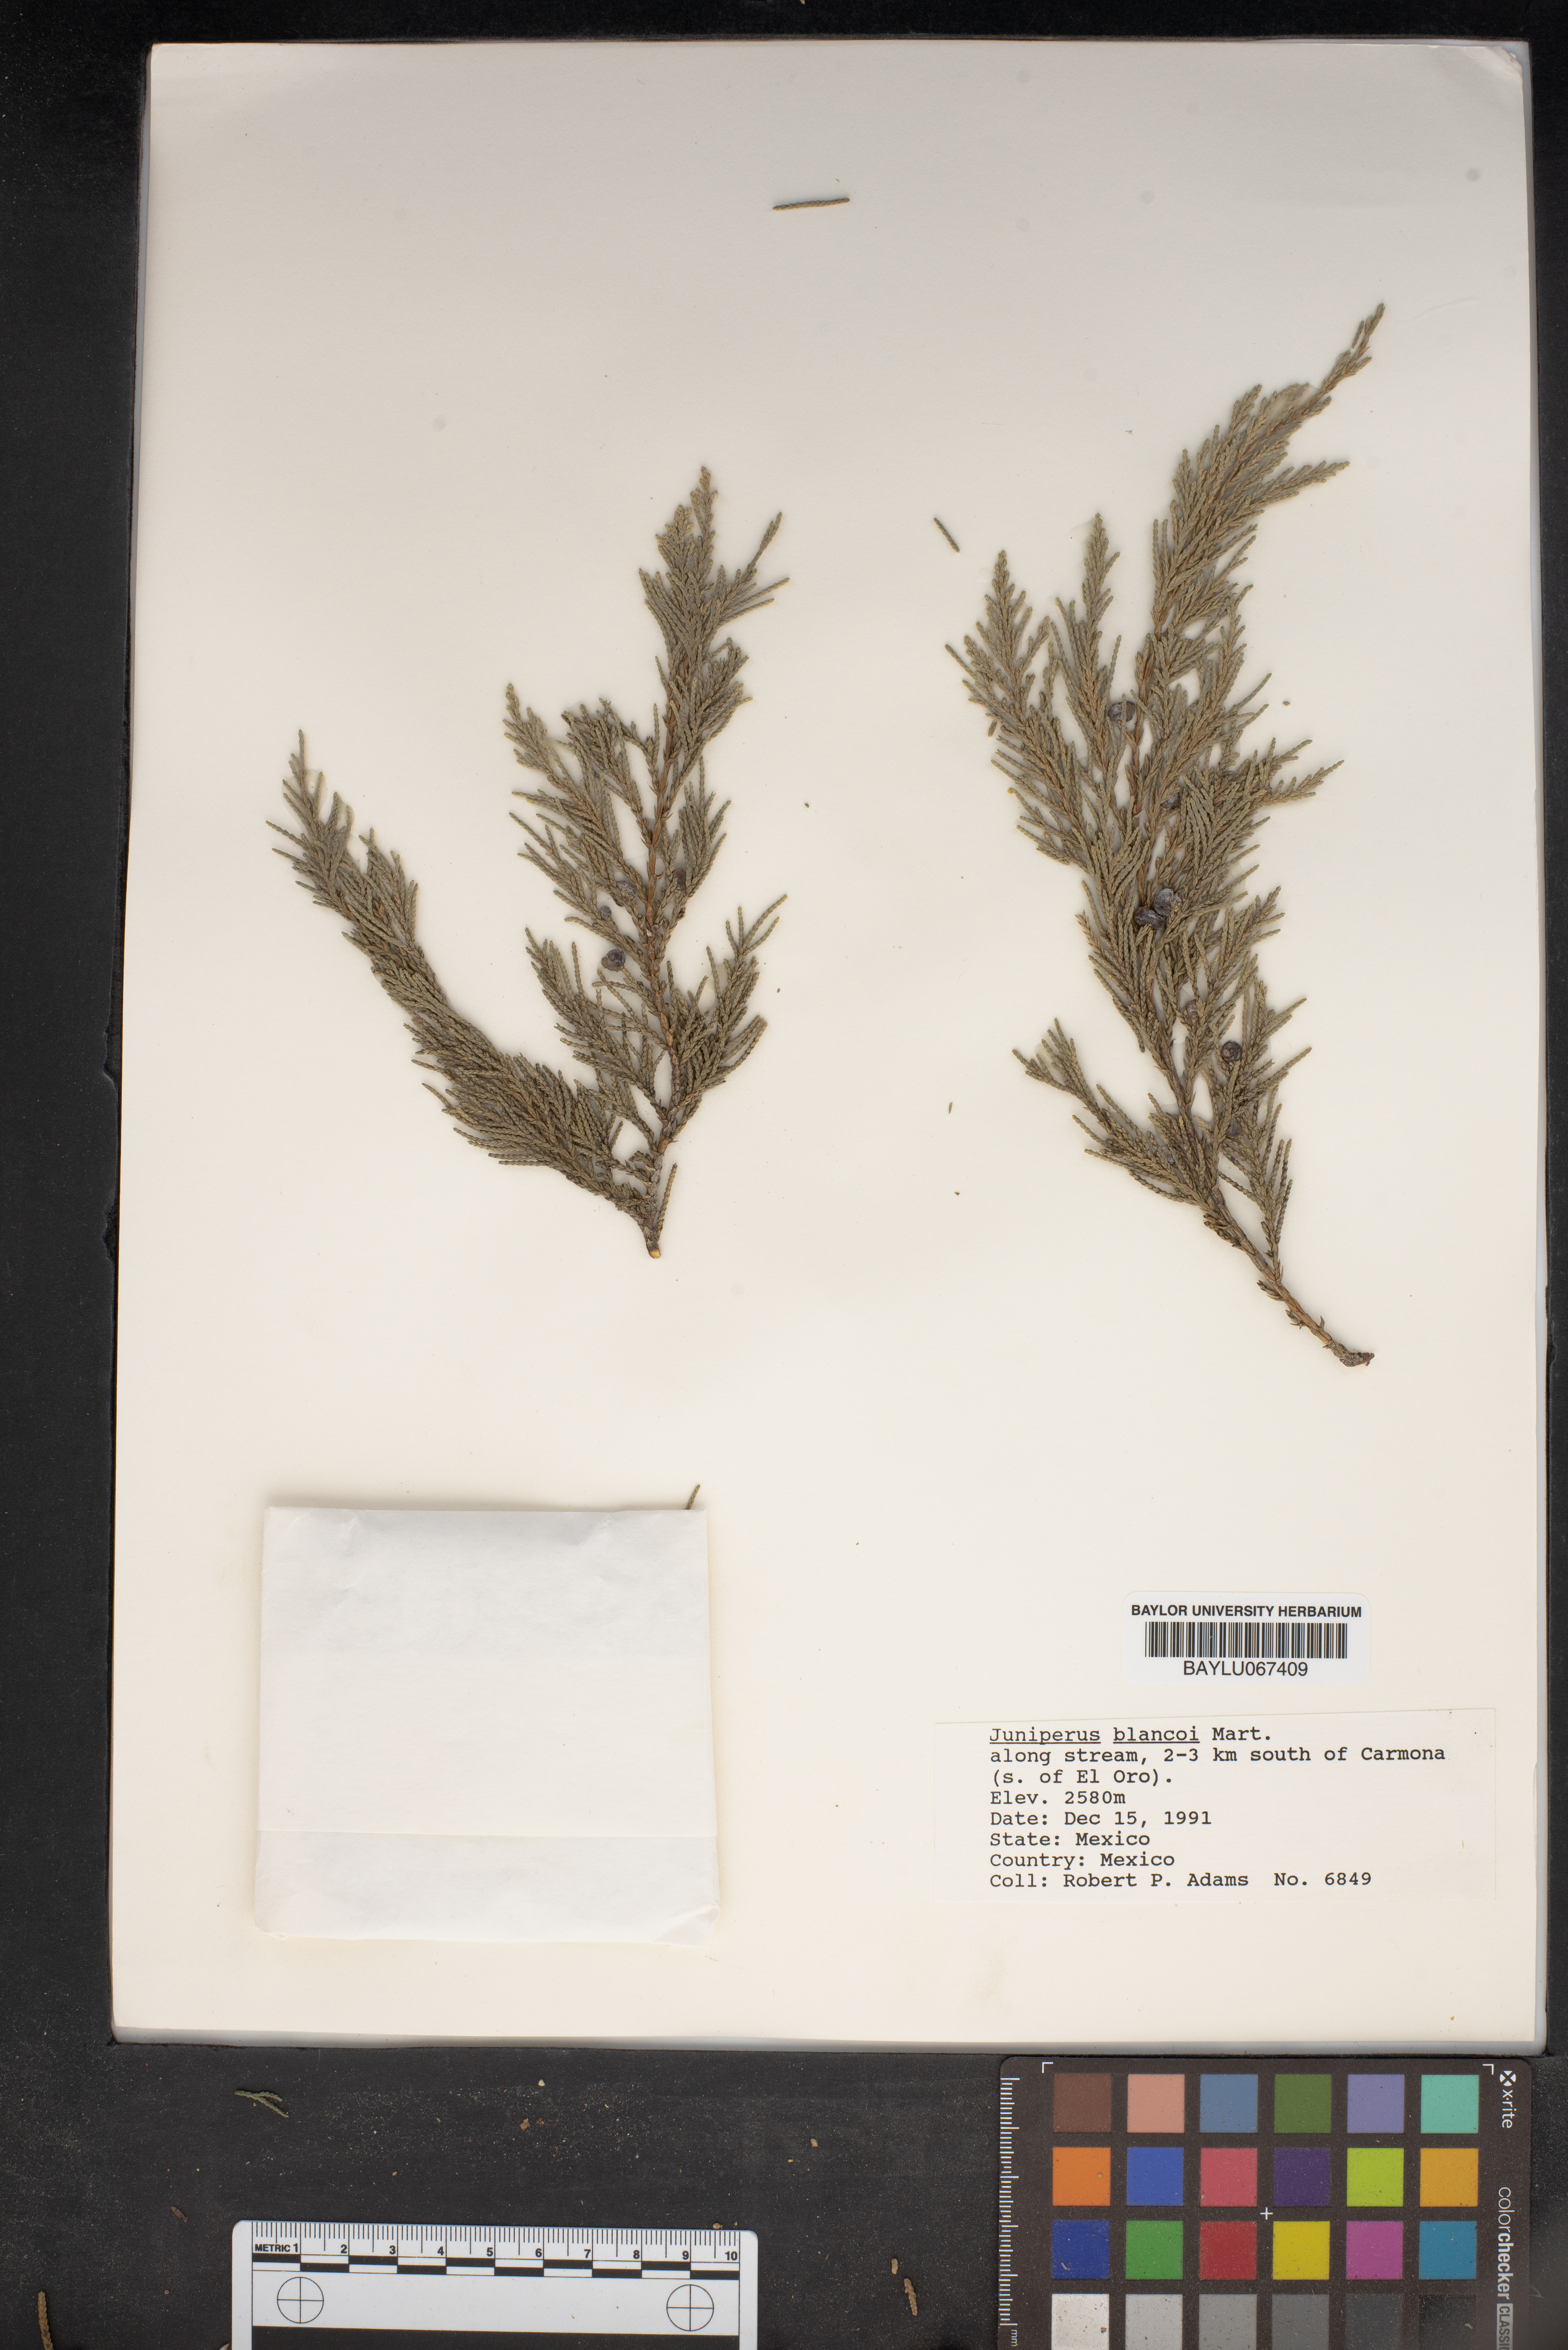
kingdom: Plantae
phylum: Tracheophyta
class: Pinopsida
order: Pinales
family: Cupressaceae
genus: Juniperus
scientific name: Juniperus blancoi
